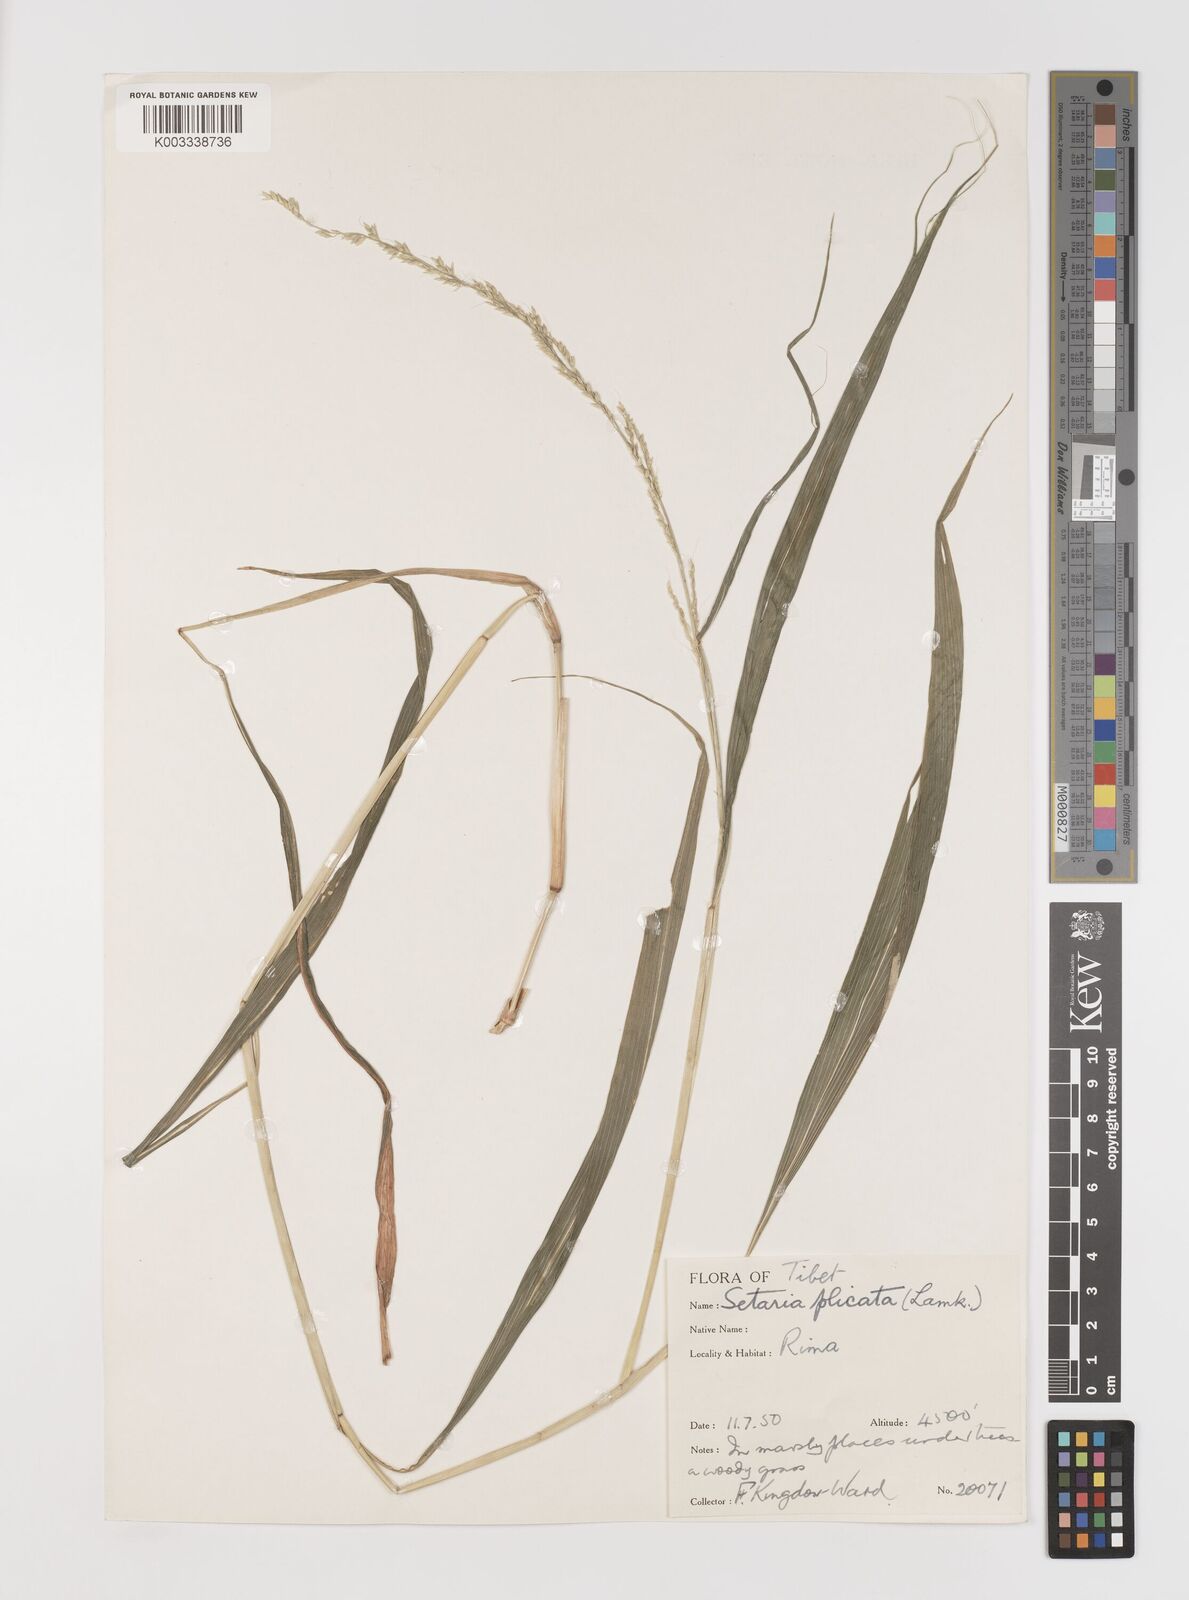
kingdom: Plantae
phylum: Tracheophyta
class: Liliopsida
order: Poales
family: Poaceae
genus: Setaria
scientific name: Setaria plicata
